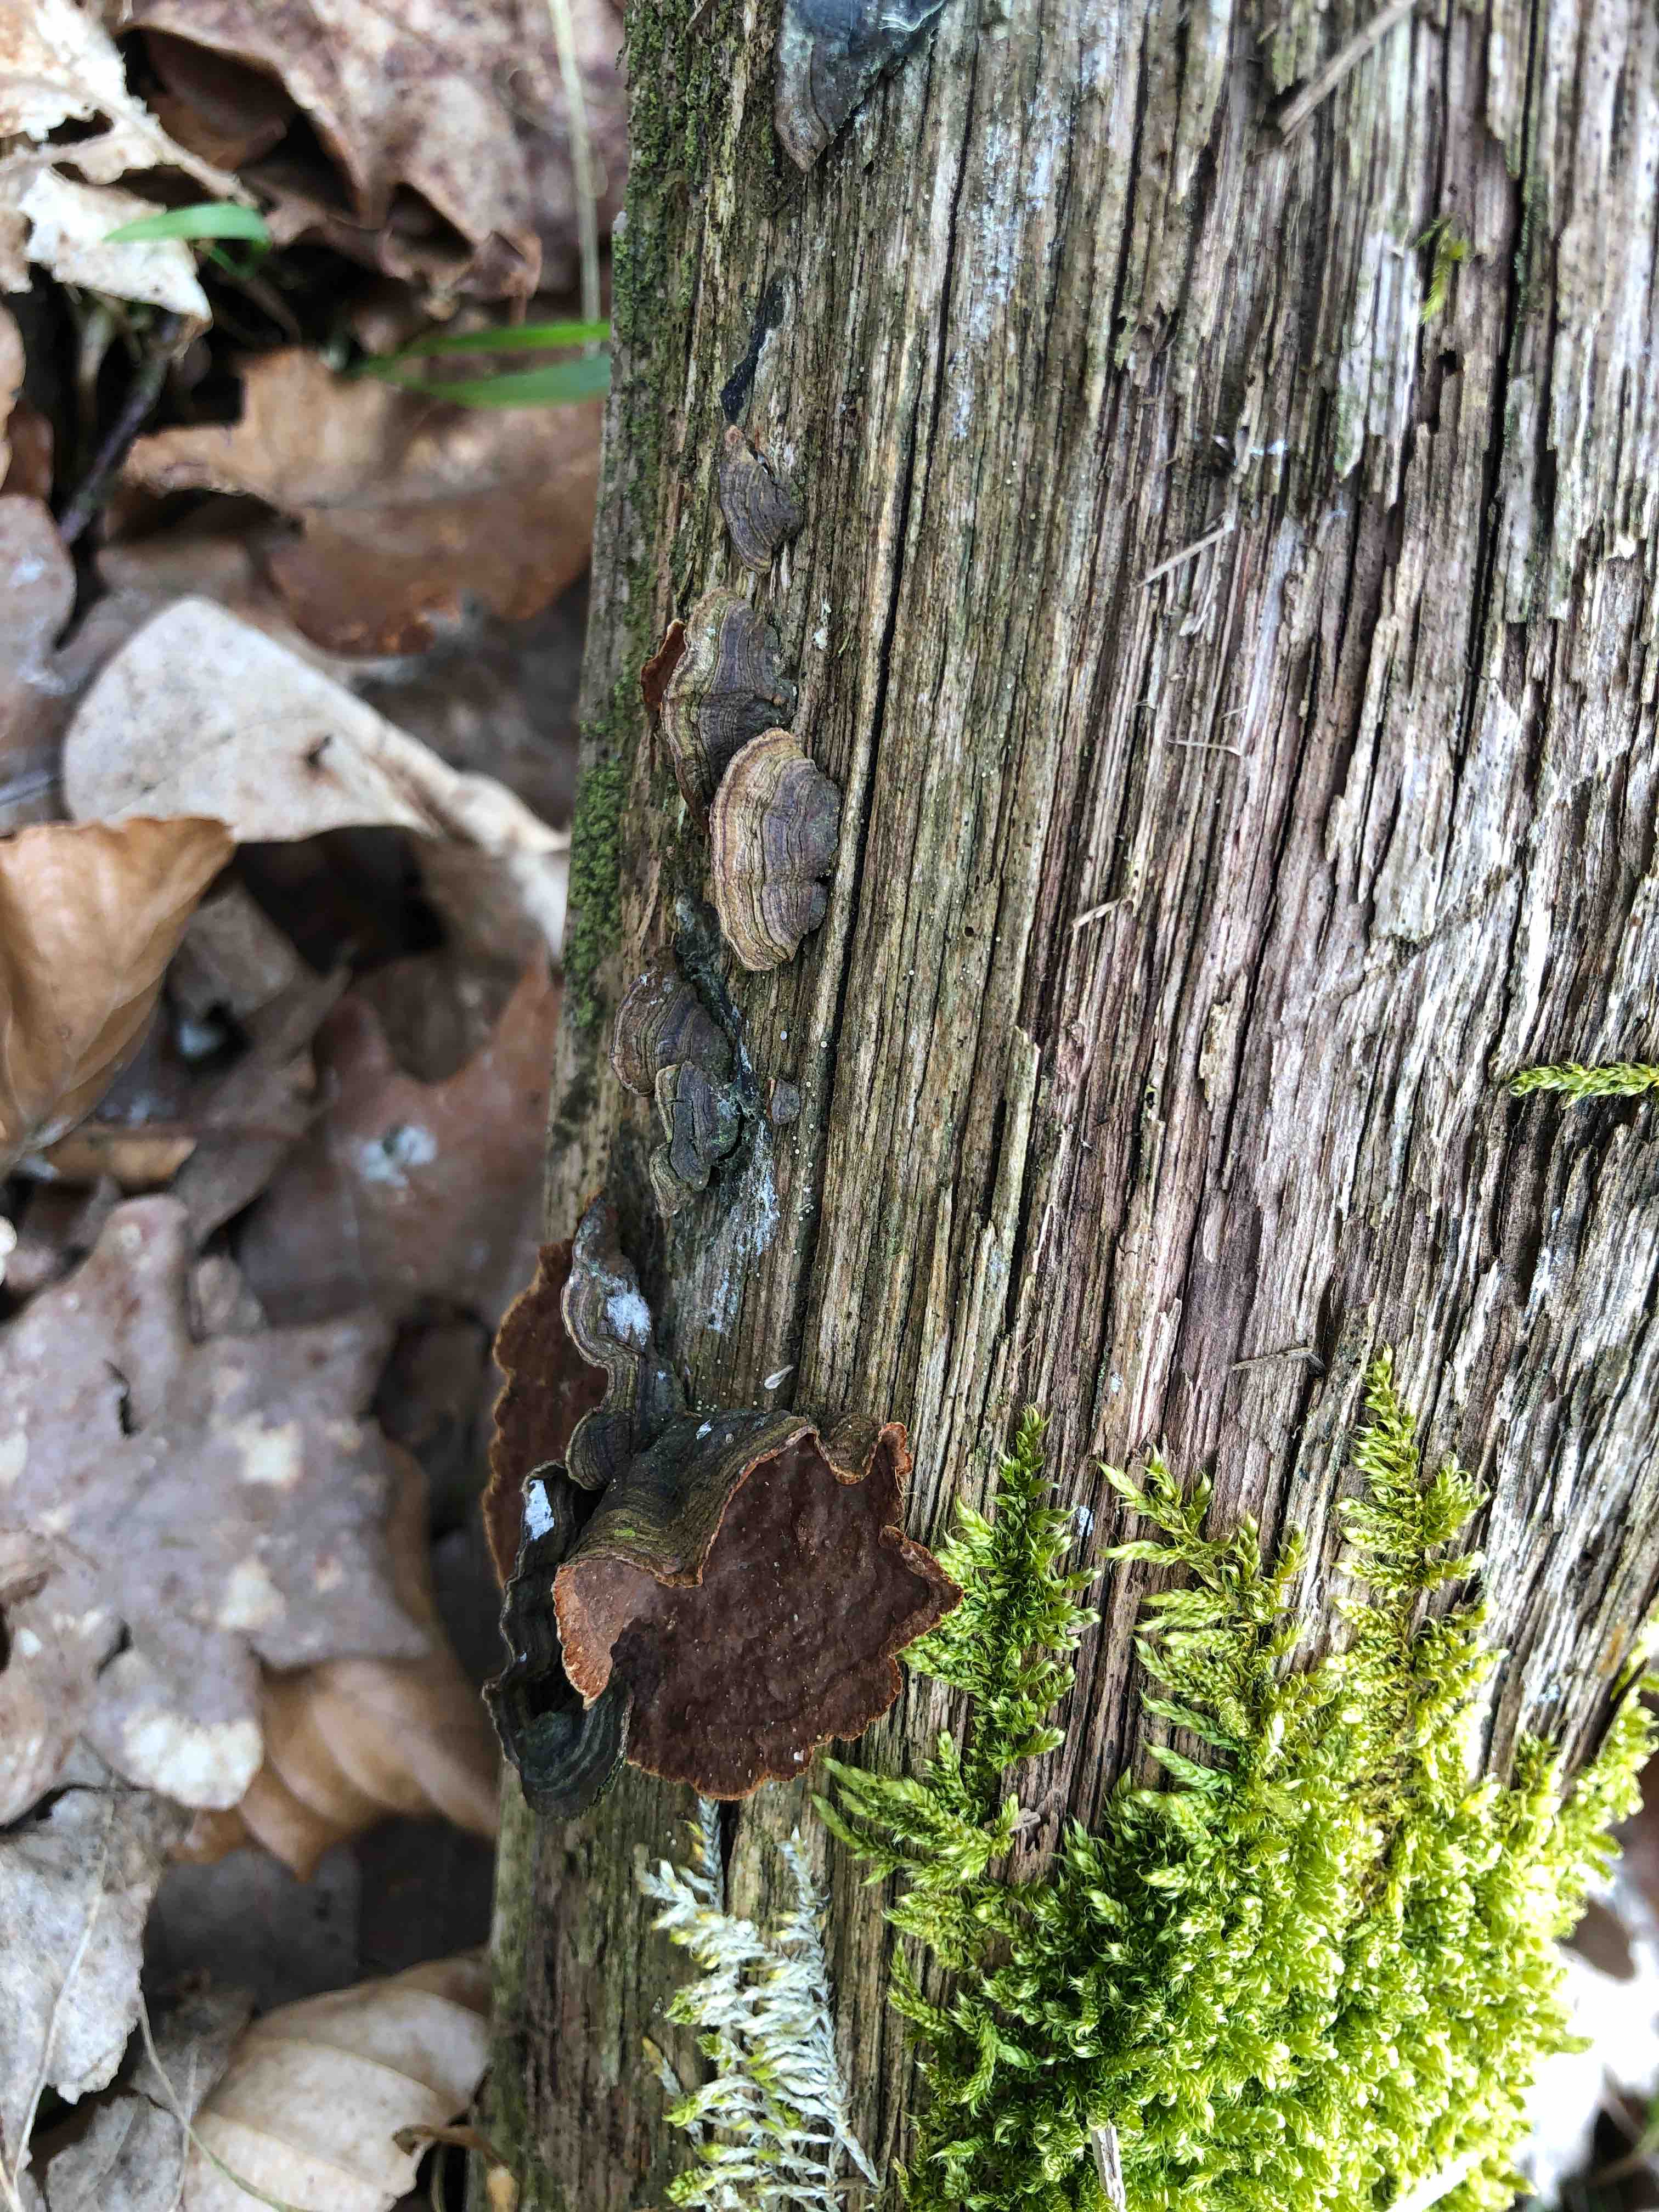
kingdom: Fungi
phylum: Basidiomycota
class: Agaricomycetes
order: Hymenochaetales
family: Hymenochaetaceae
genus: Hymenochaete
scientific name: Hymenochaete rubiginosa
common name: stiv ruslædersvamp
